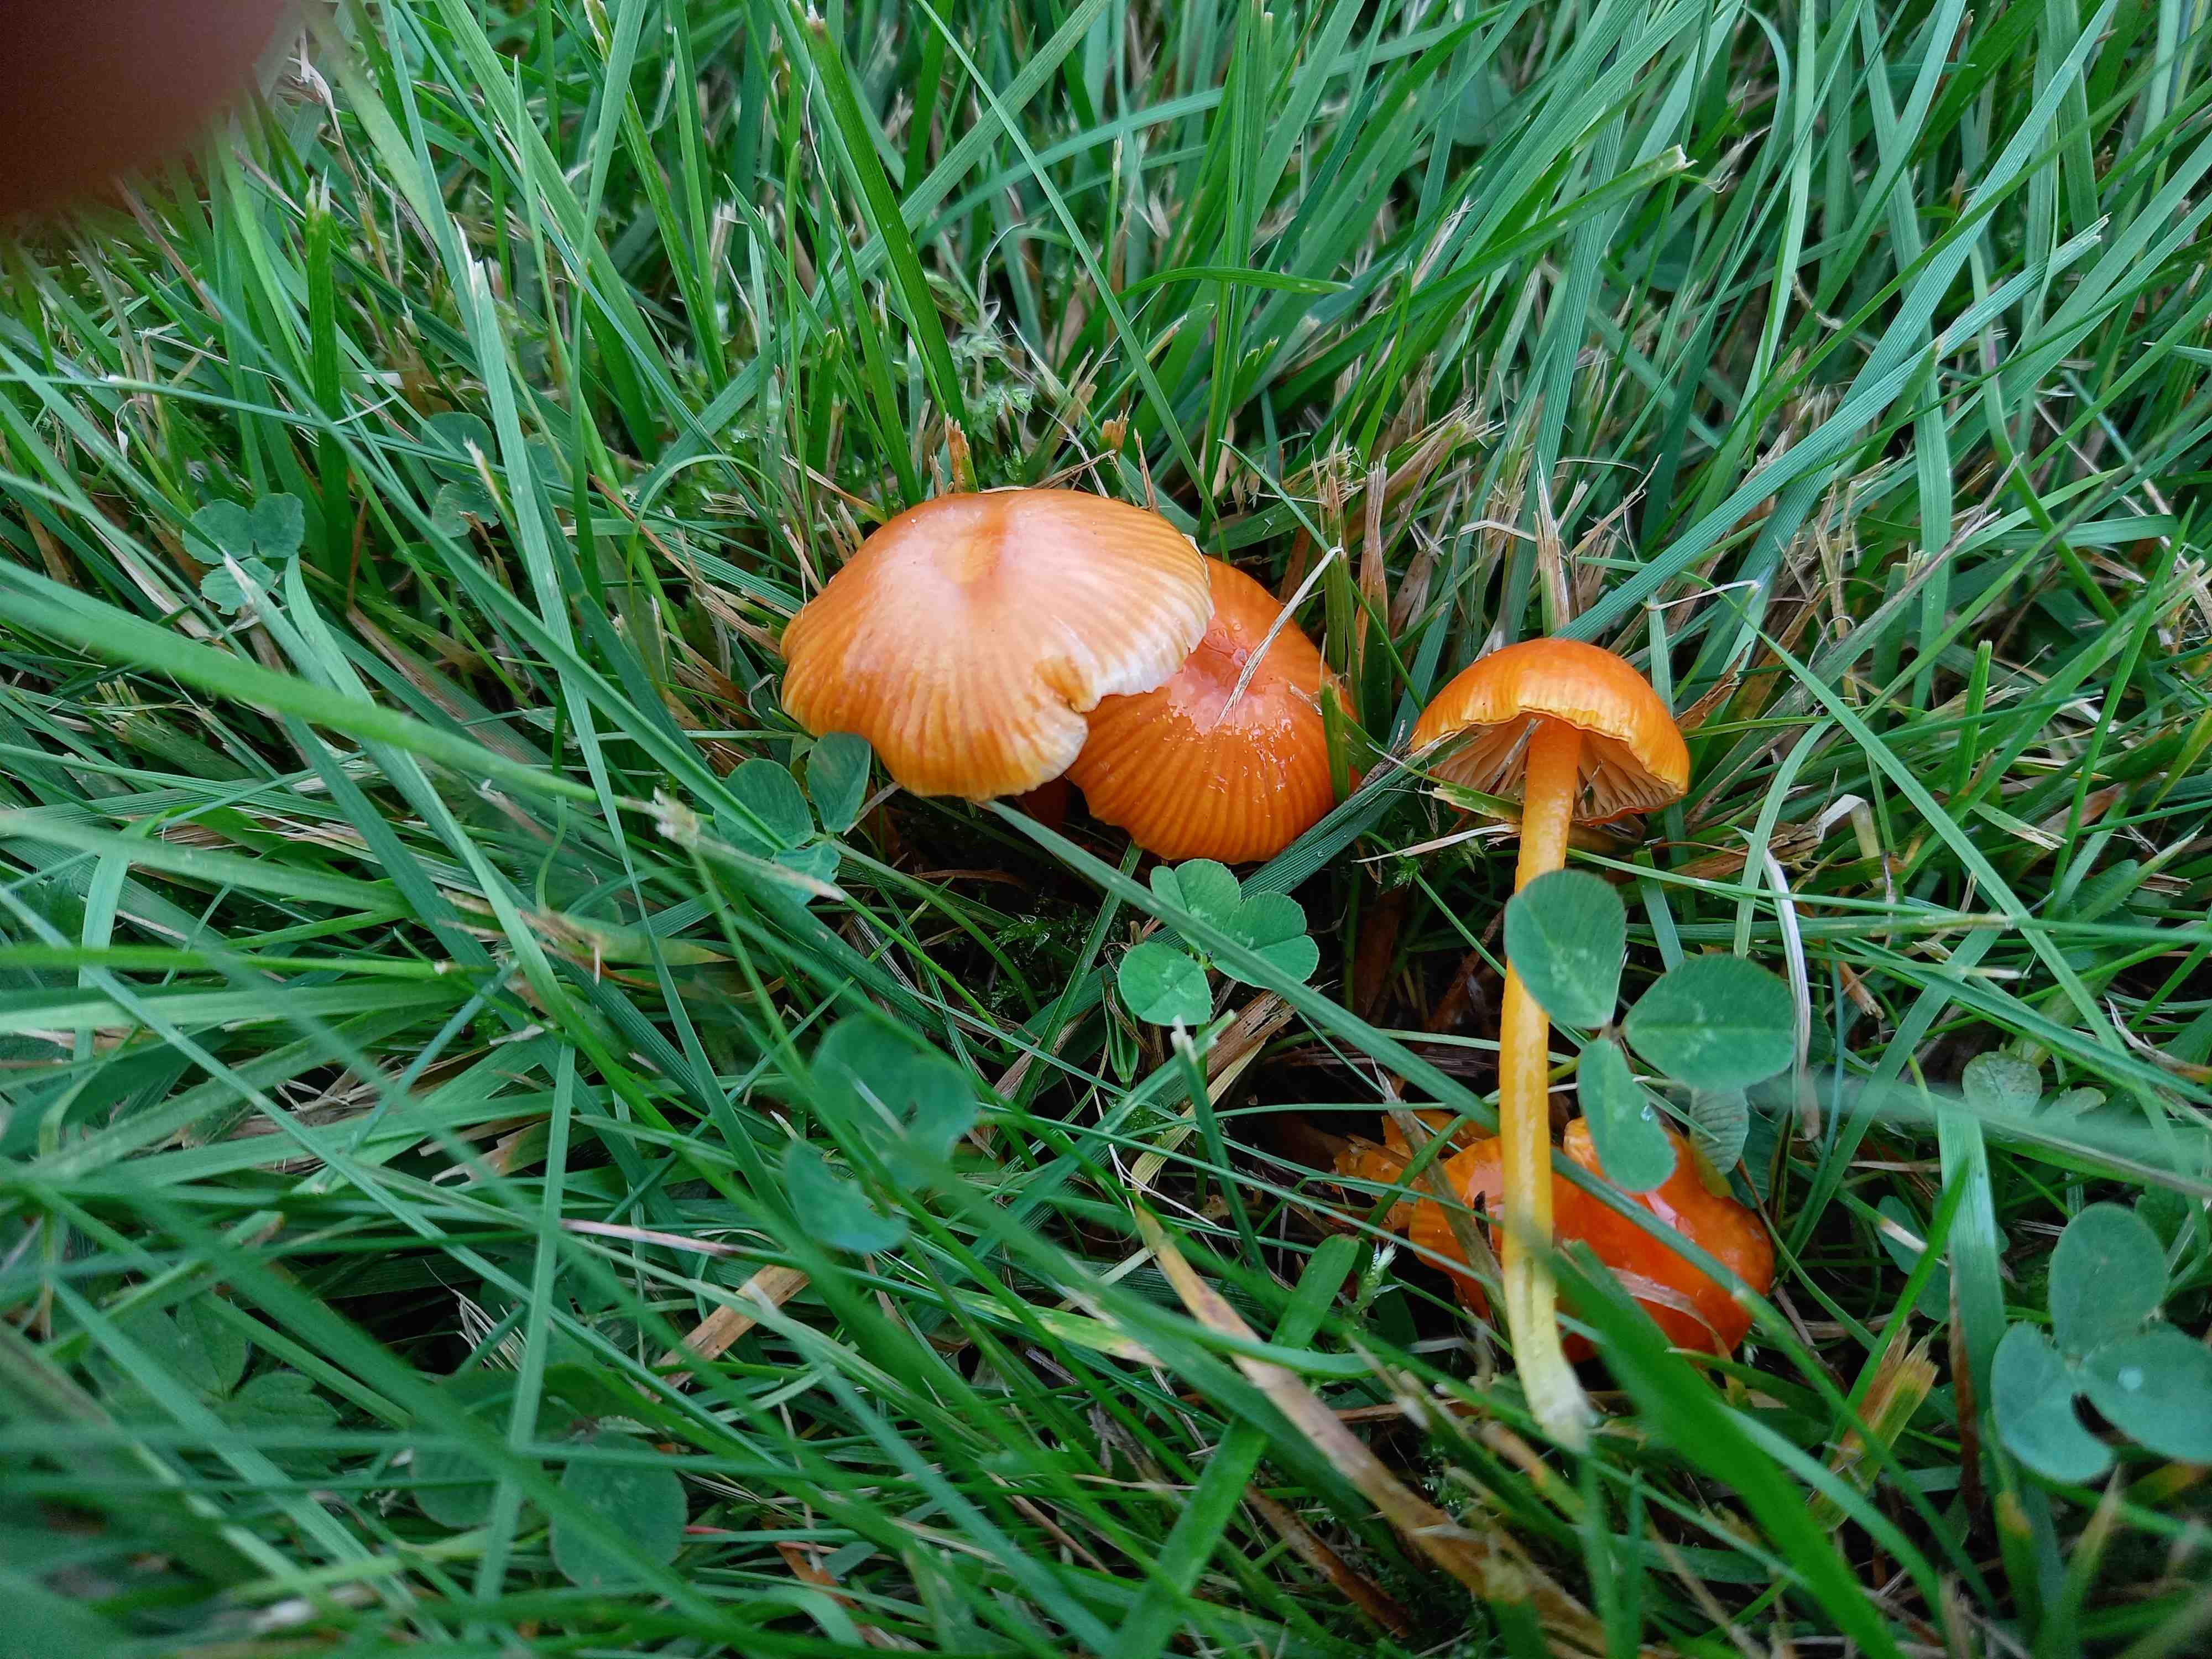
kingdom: Fungi
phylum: Basidiomycota
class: Agaricomycetes
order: Agaricales
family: Hygrophoraceae
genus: Hygrocybe
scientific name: Hygrocybe glutinipes
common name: slimstokket vokshat
